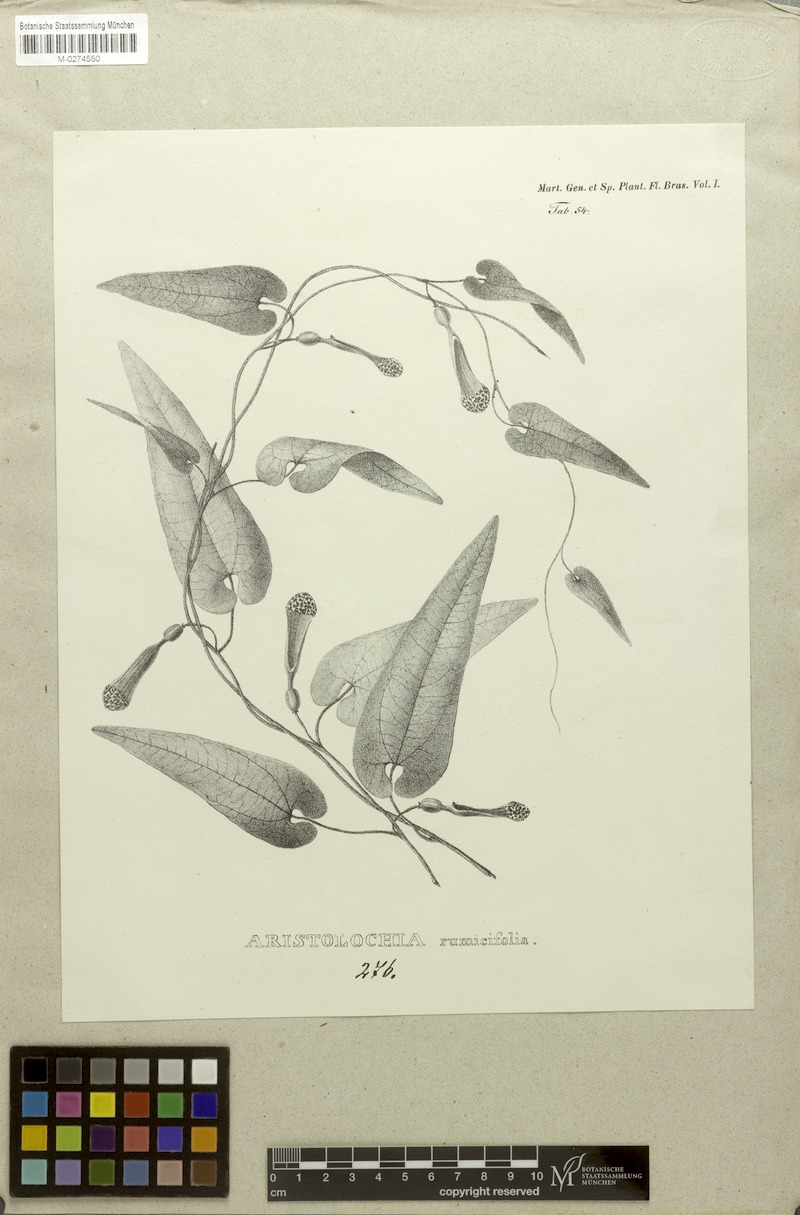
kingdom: Plantae
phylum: Tracheophyta
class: Magnoliopsida
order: Piperales
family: Aristolochiaceae
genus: Aristolochia
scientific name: Aristolochia rumicifolia
